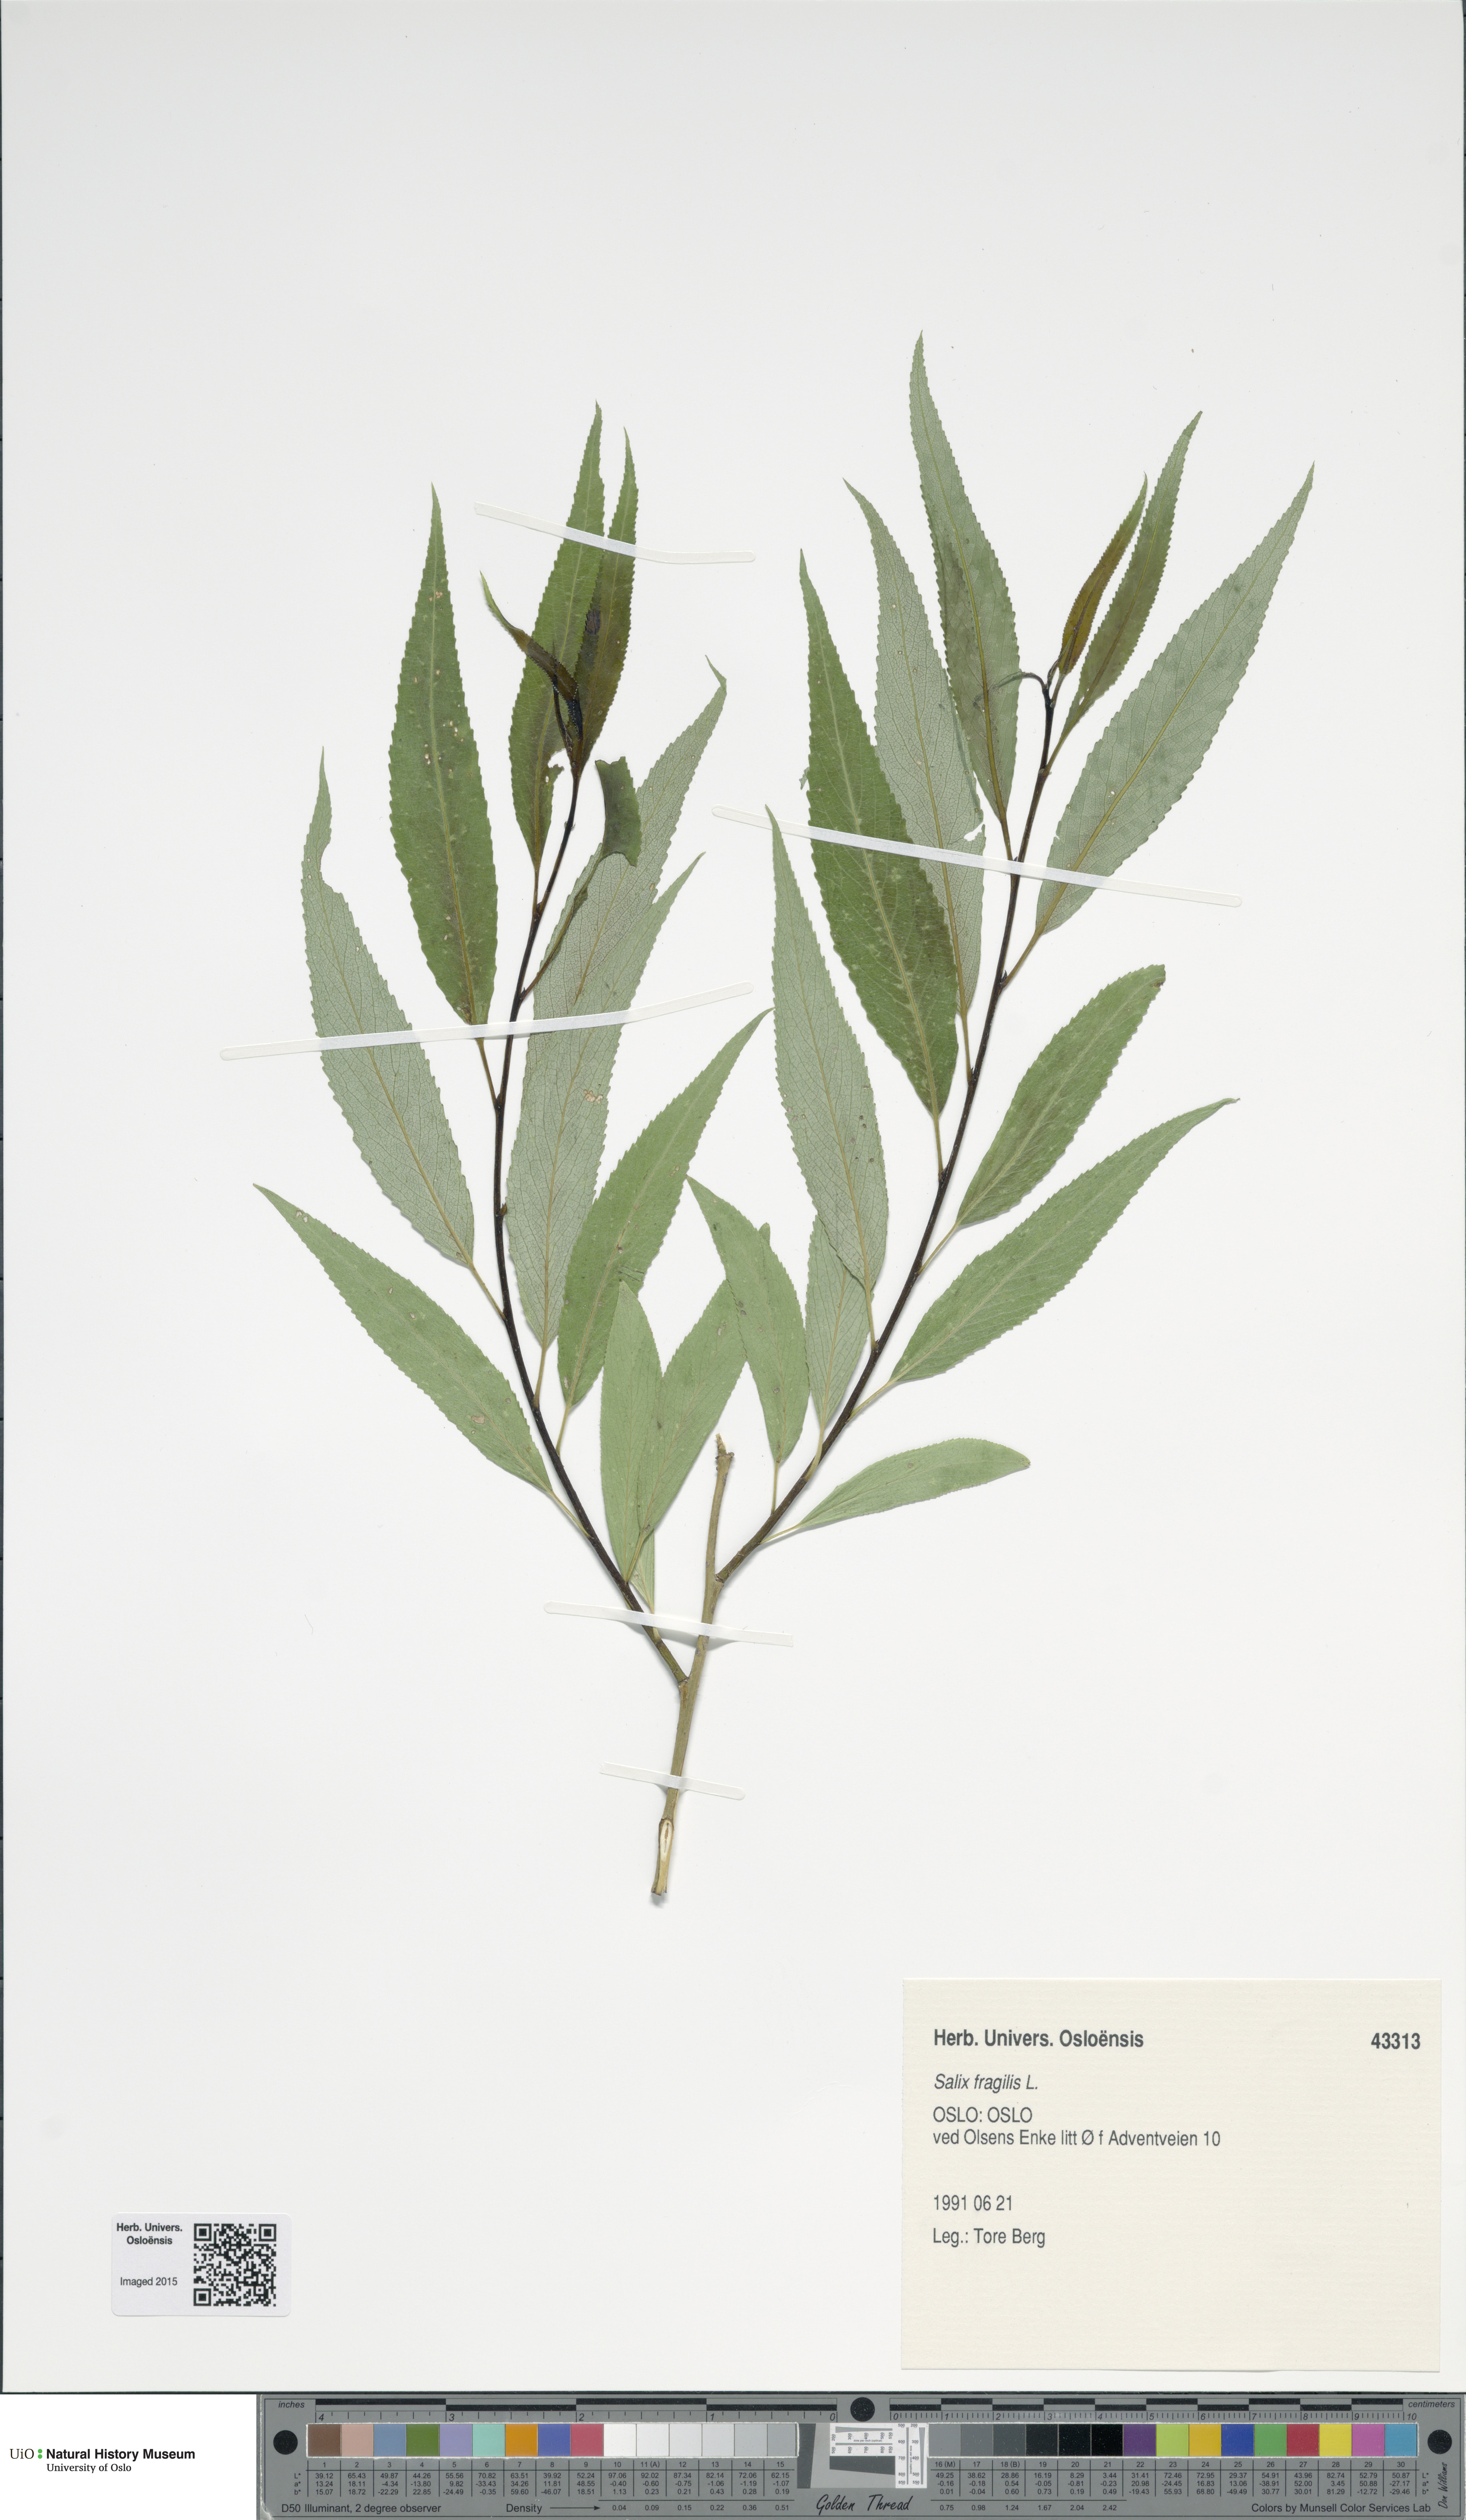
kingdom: Plantae
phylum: Tracheophyta
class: Magnoliopsida
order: Malpighiales
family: Salicaceae
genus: Salix
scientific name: Salix alba
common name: White willow
